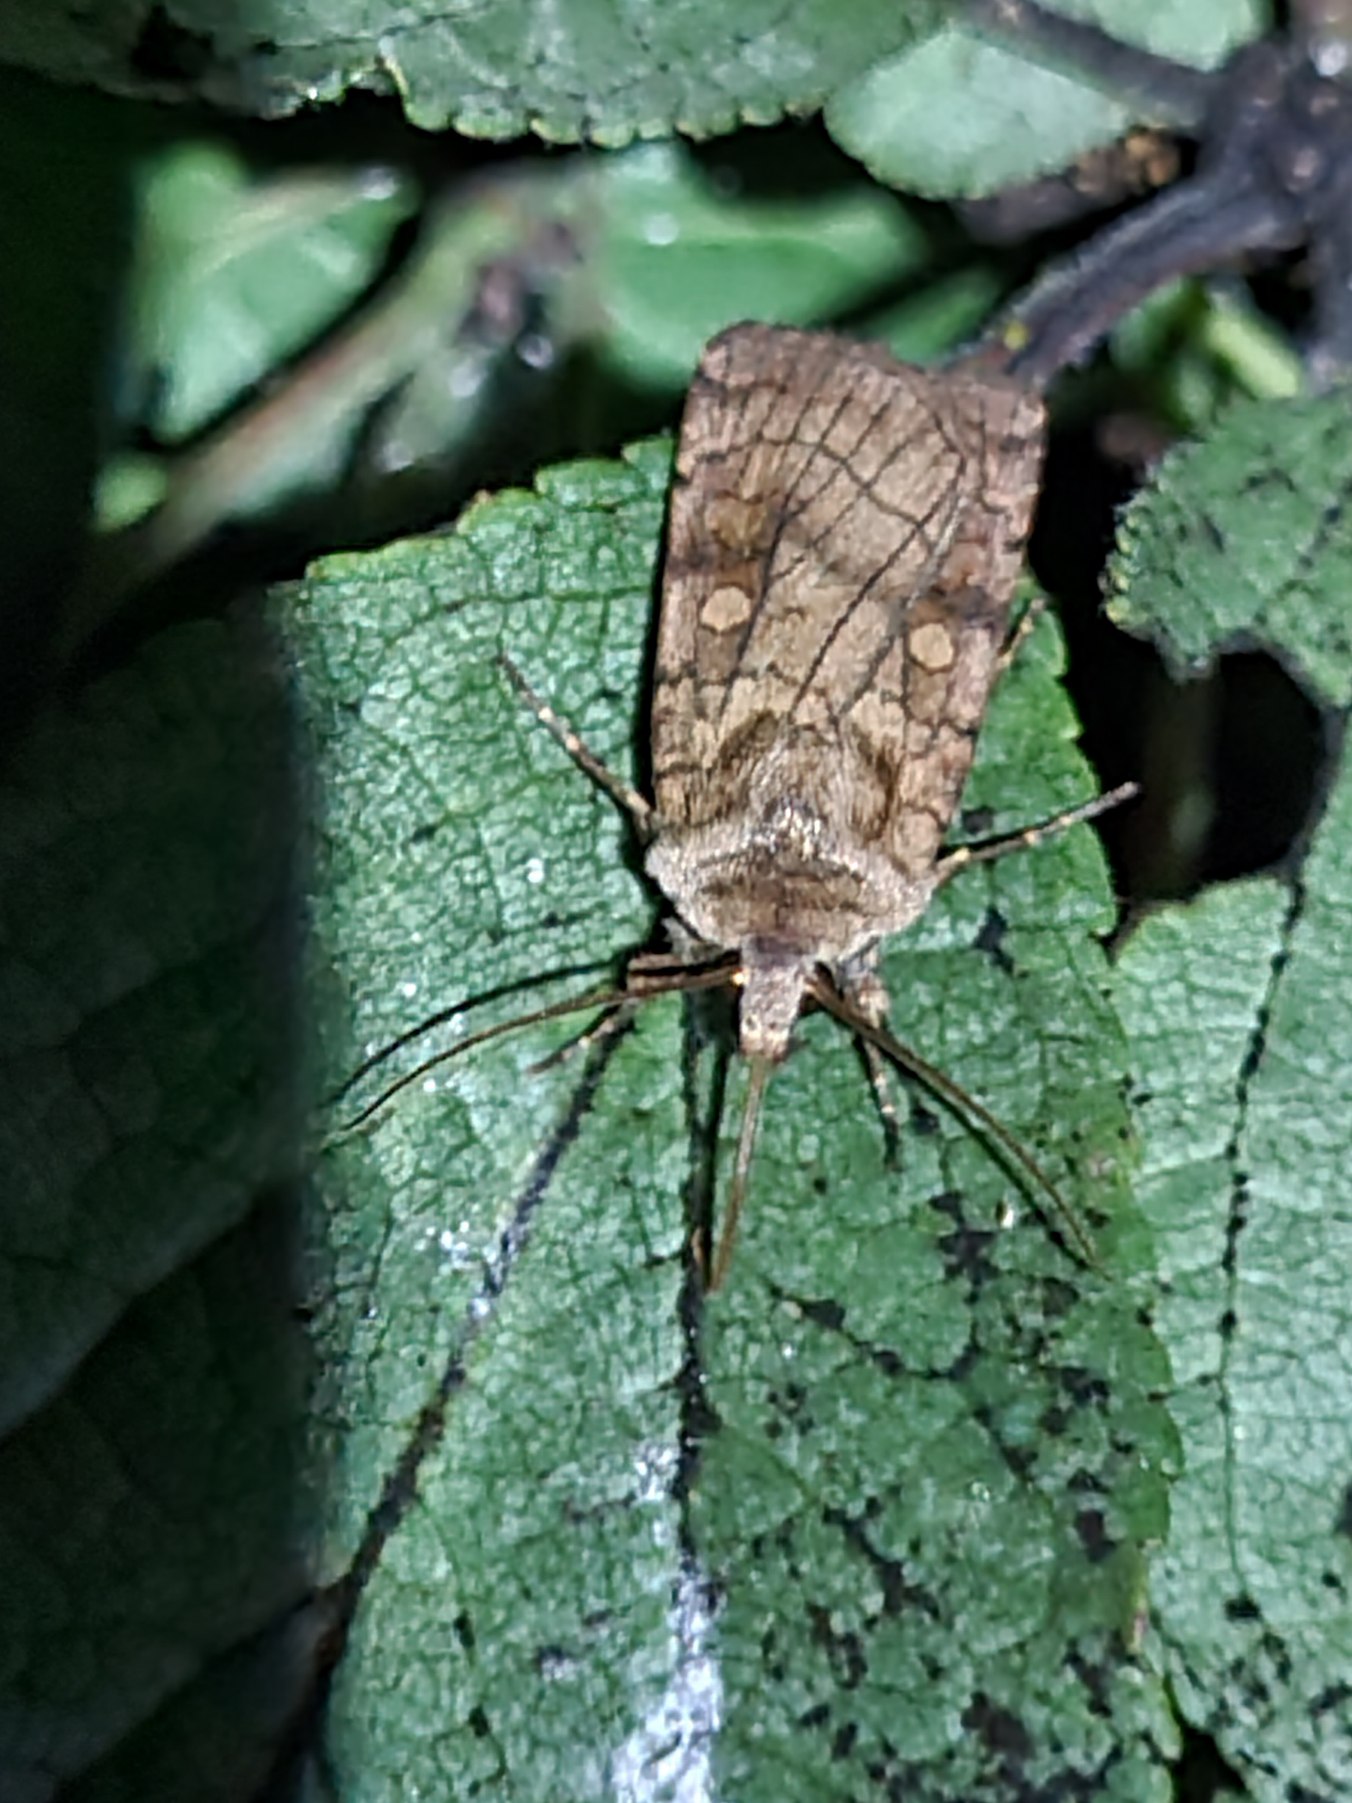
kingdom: Animalia
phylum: Arthropoda
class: Insecta
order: Lepidoptera
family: Noctuidae
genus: Xestia
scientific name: Xestia sexstrigata
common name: Seksliniet glansugle
